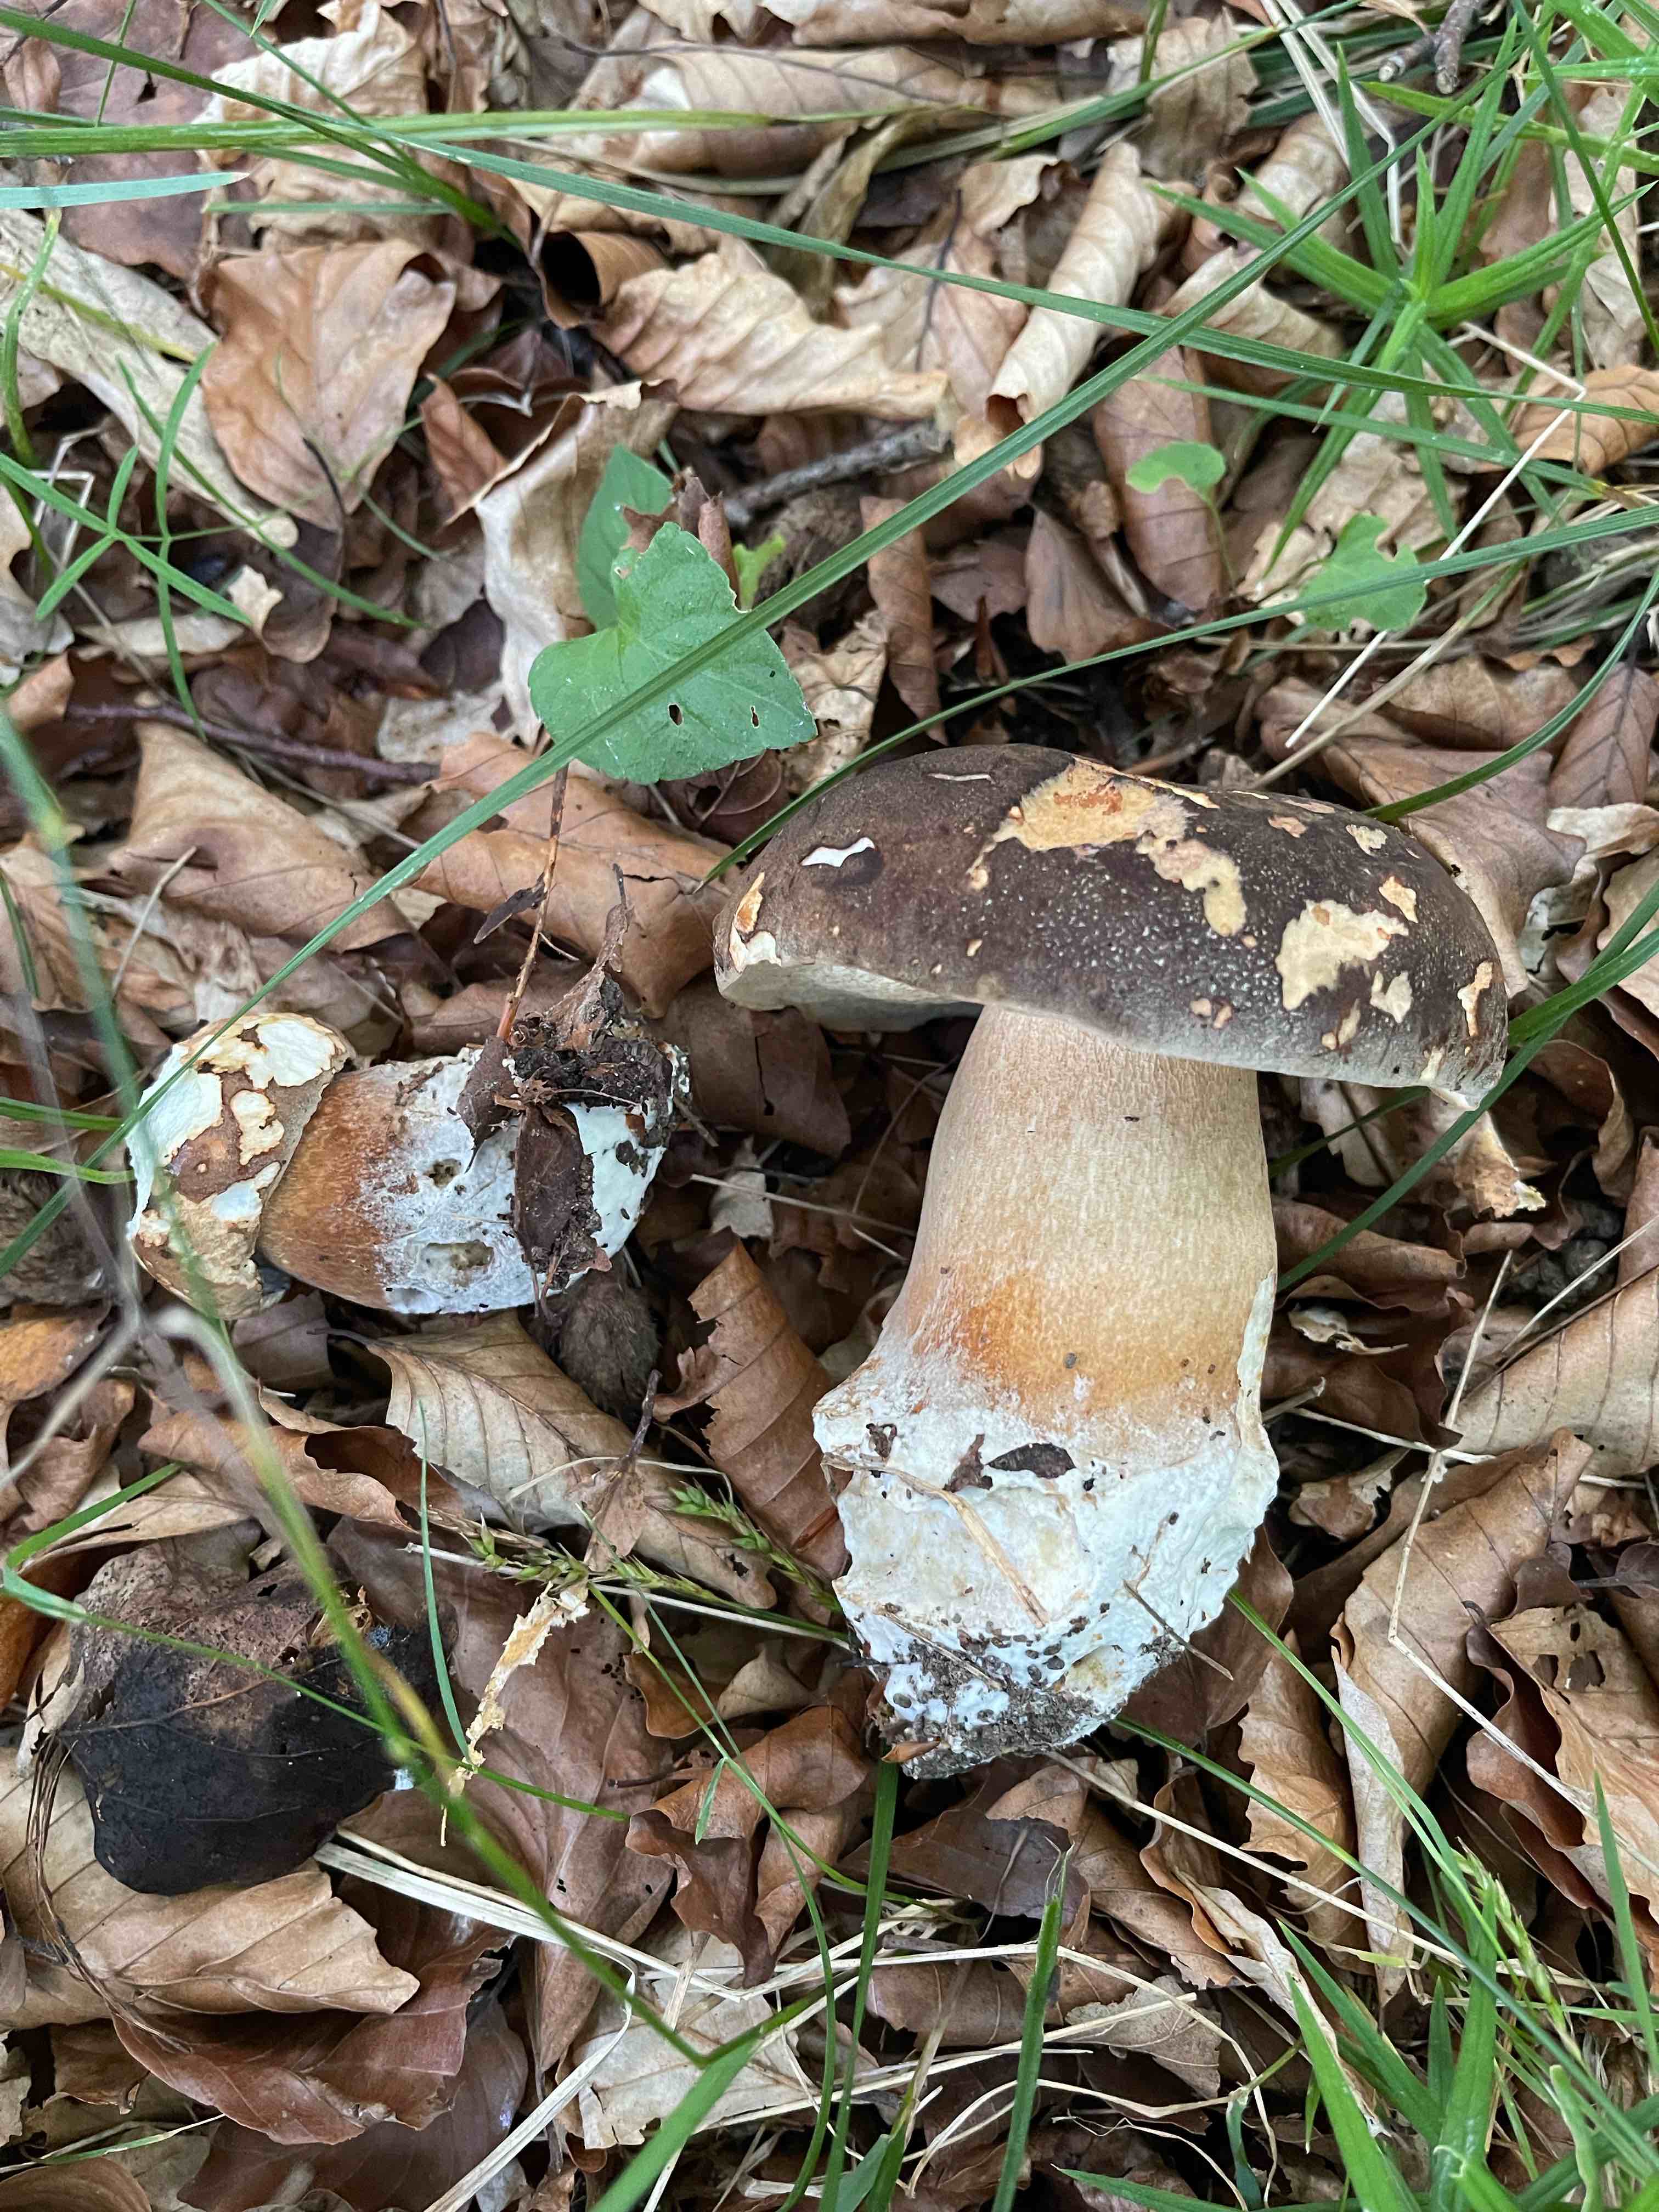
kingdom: Fungi
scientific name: Fungi
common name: bronze-rørhat
